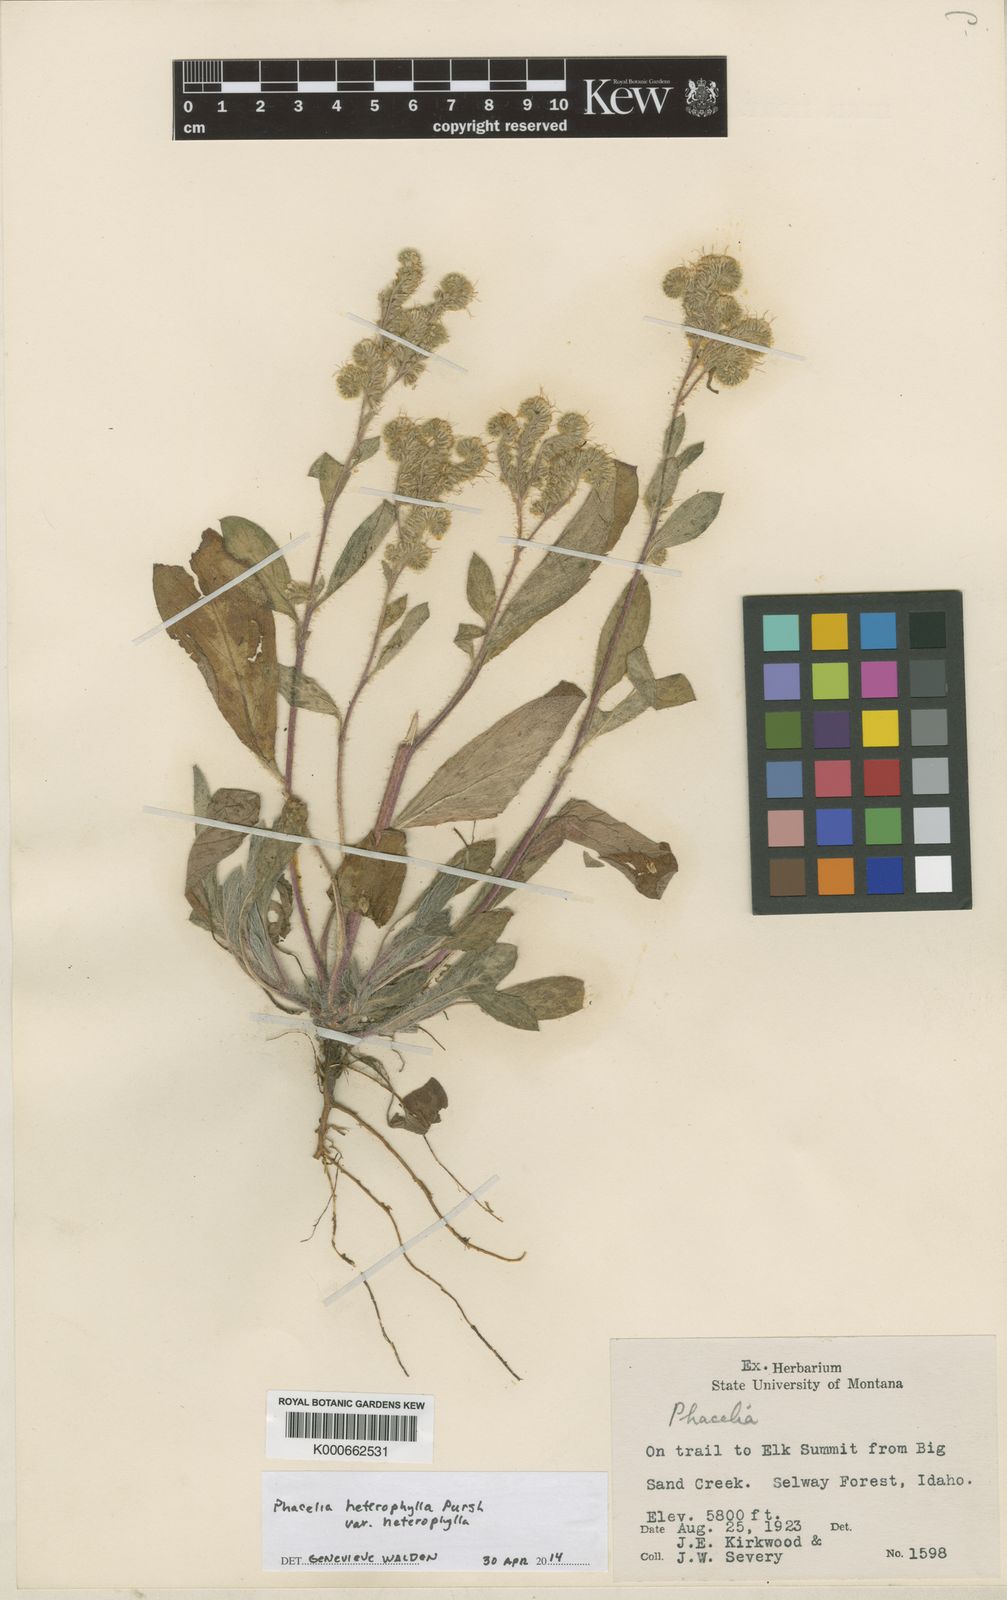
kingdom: Plantae
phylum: Tracheophyta
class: Magnoliopsida
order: Boraginales
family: Hydrophyllaceae
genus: Phacelia
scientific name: Phacelia heterophylla
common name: Variable-leaved phacelia
